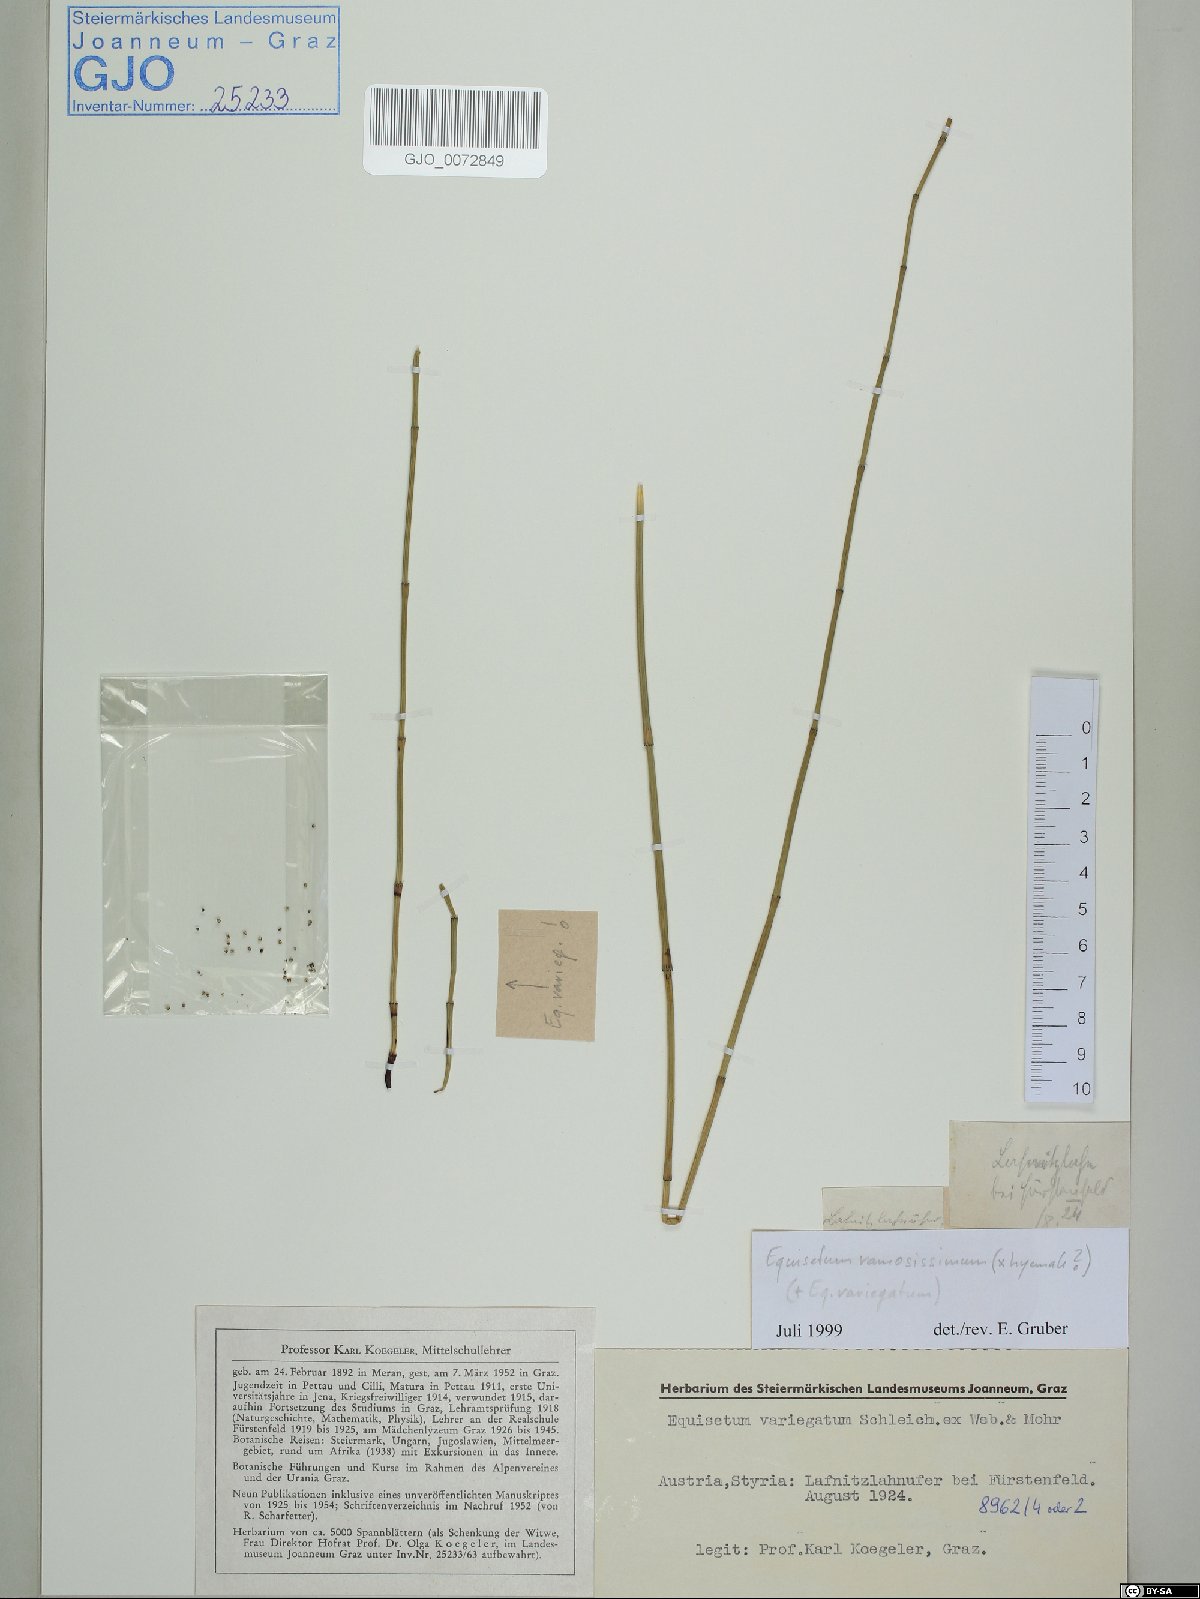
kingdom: Plantae
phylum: Tracheophyta
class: Polypodiopsida
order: Equisetales
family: Equisetaceae
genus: Equisetum
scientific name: Equisetum ramosissimum
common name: Branched horsetail
